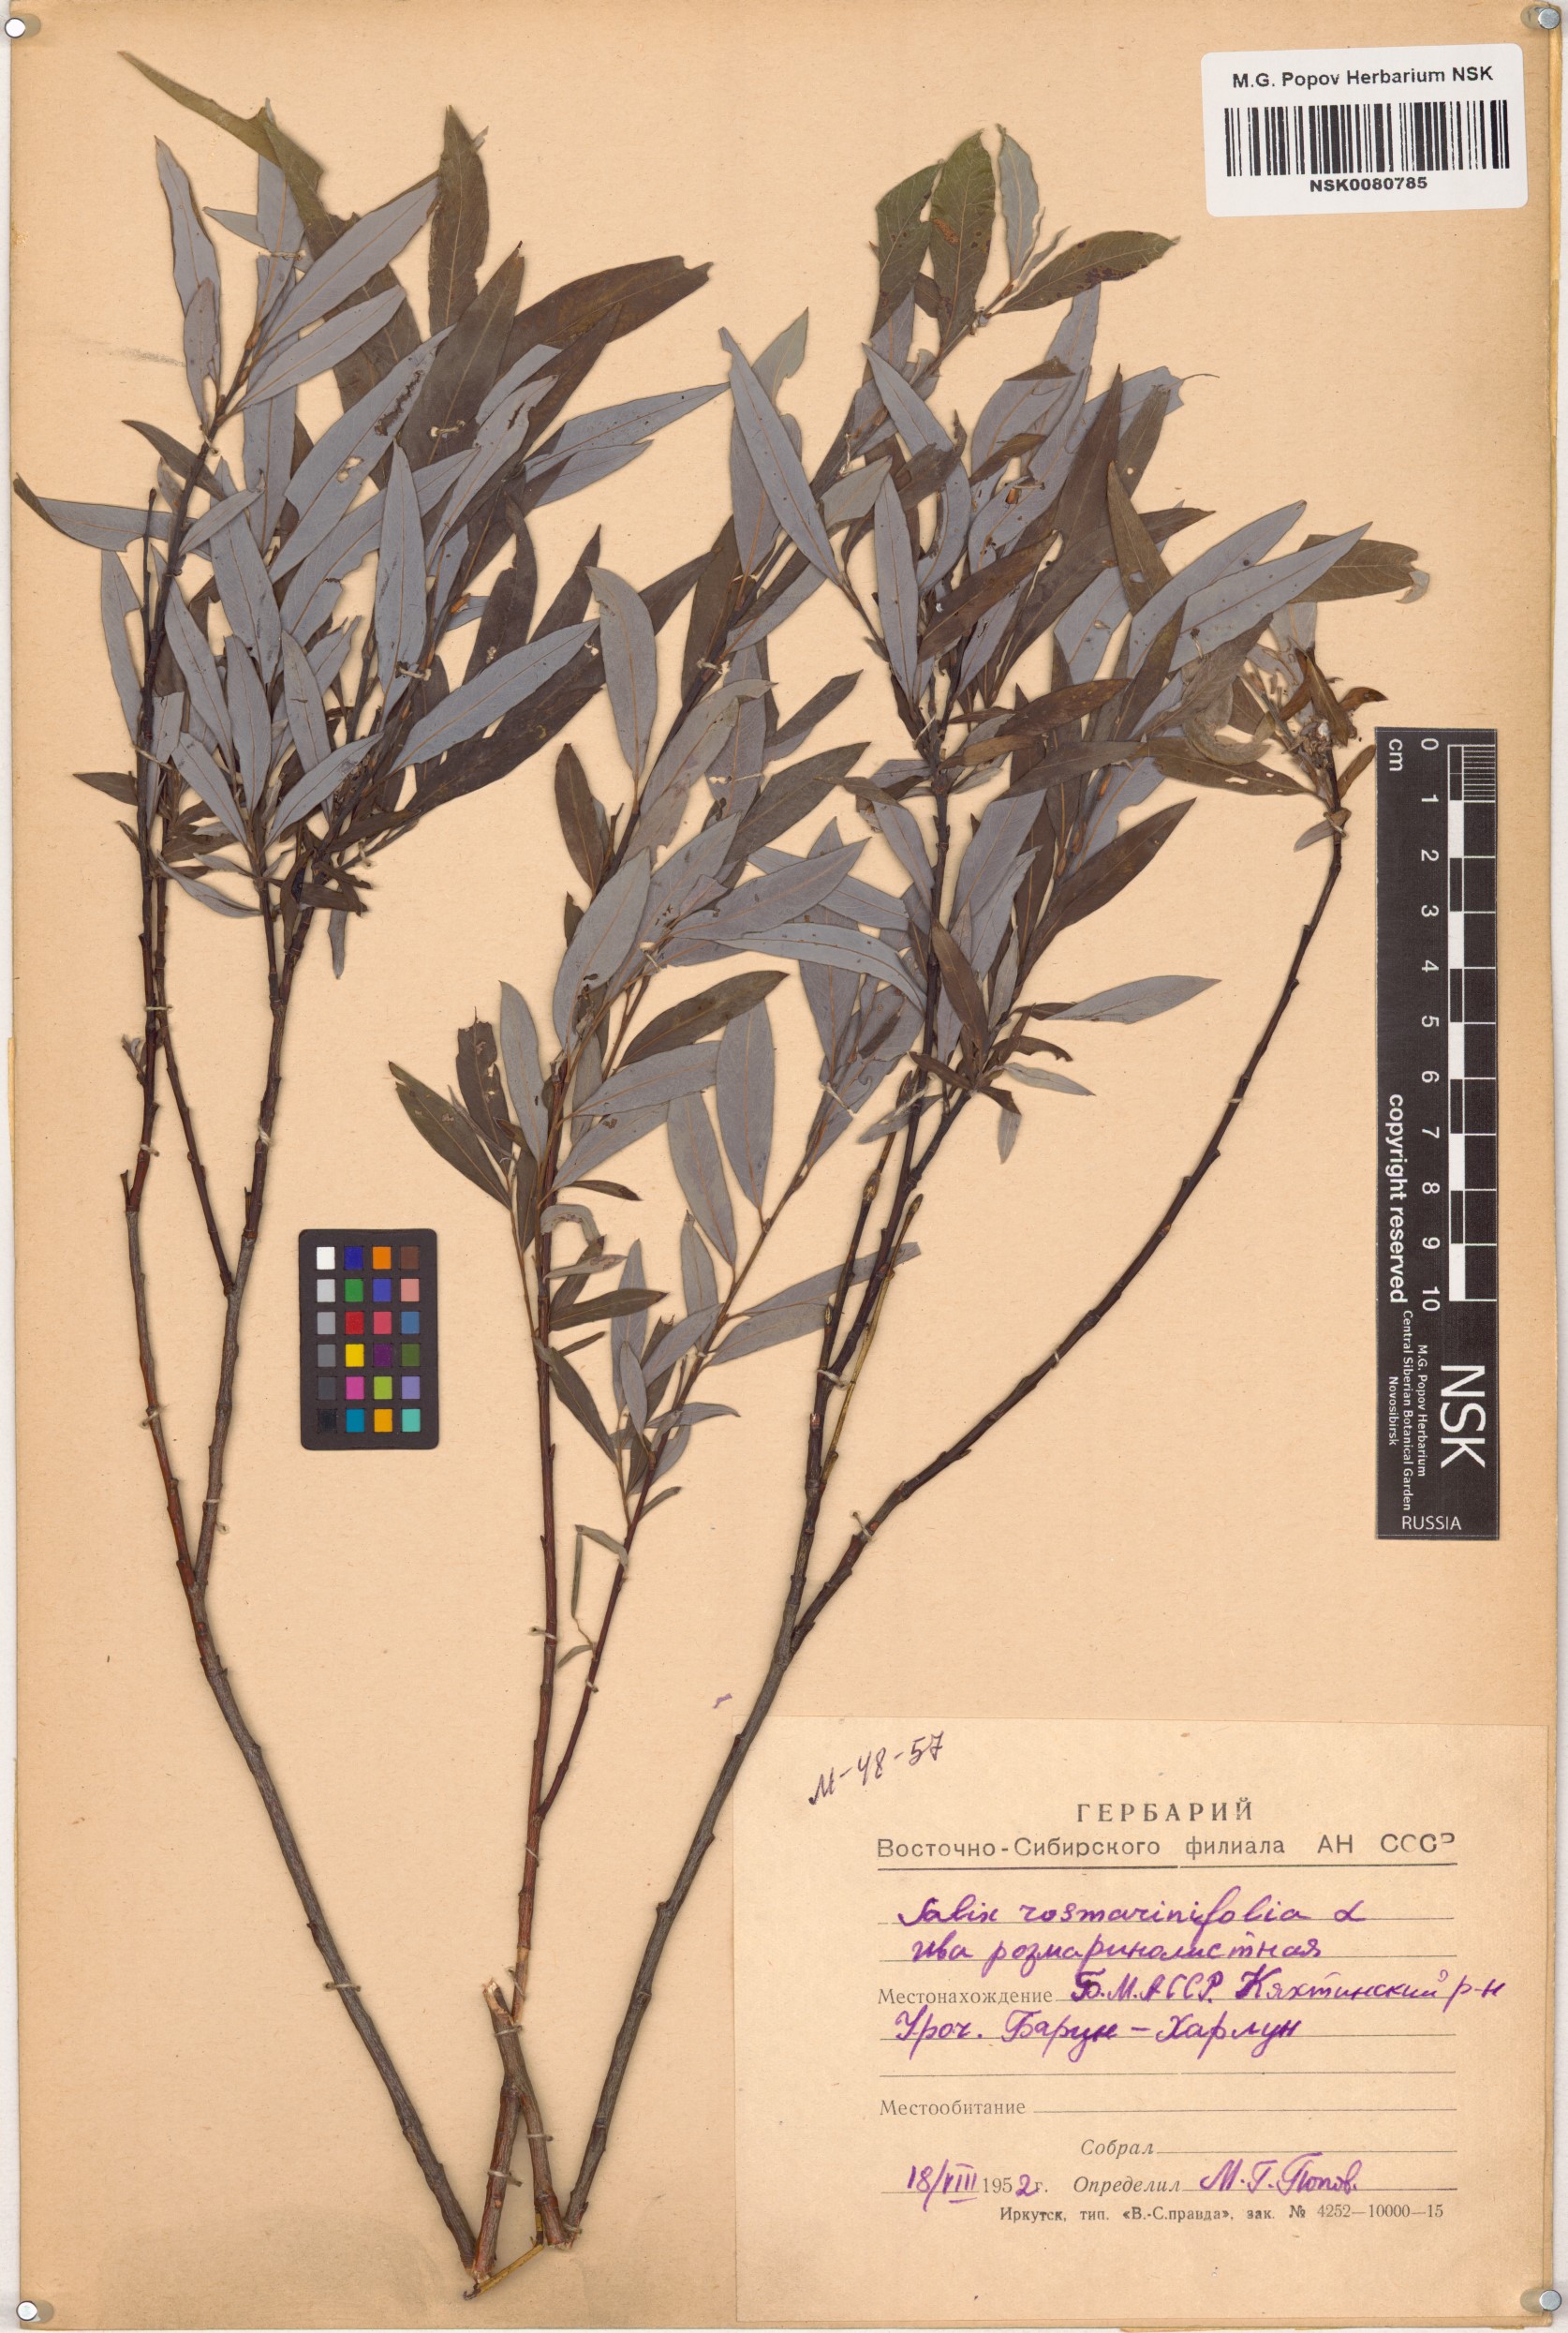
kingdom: Plantae
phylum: Tracheophyta
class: Magnoliopsida
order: Malpighiales
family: Salicaceae
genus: Salix
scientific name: Salix rosmarinifolia
